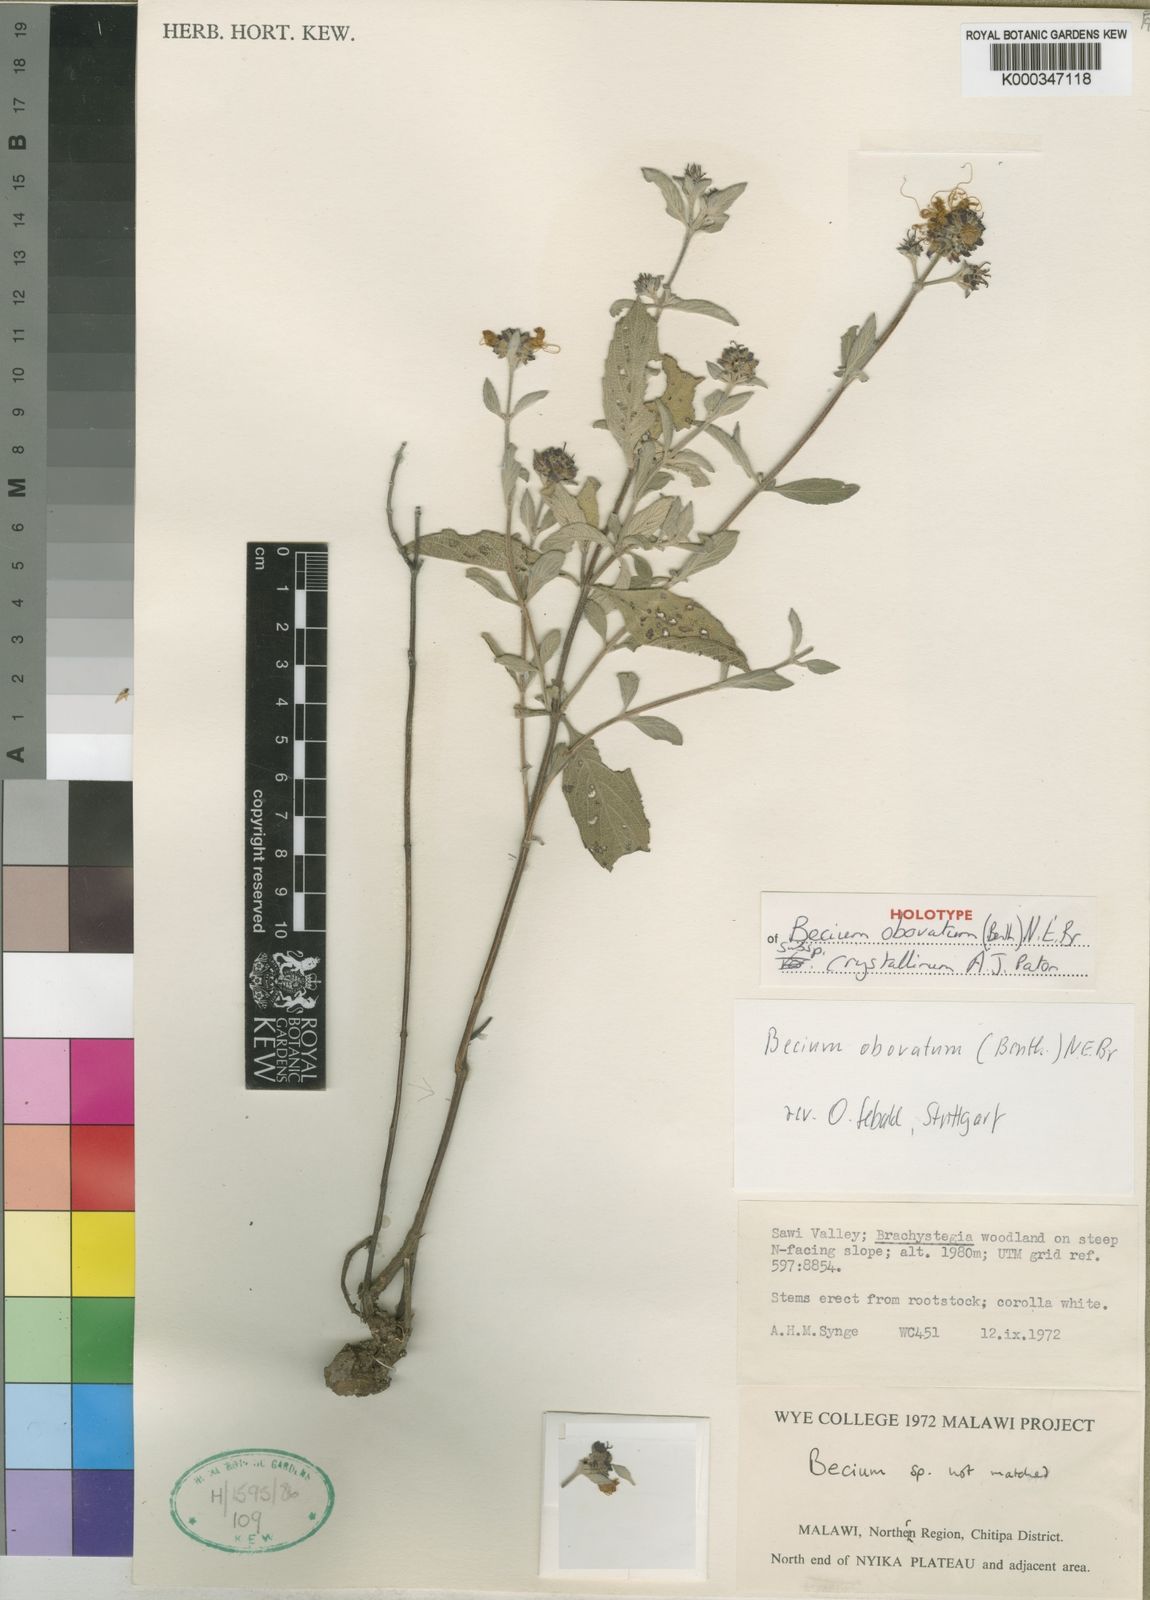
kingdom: Plantae
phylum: Tracheophyta
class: Magnoliopsida
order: Lamiales
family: Lamiaceae
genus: Ocimum
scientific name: Ocimum obovatum
